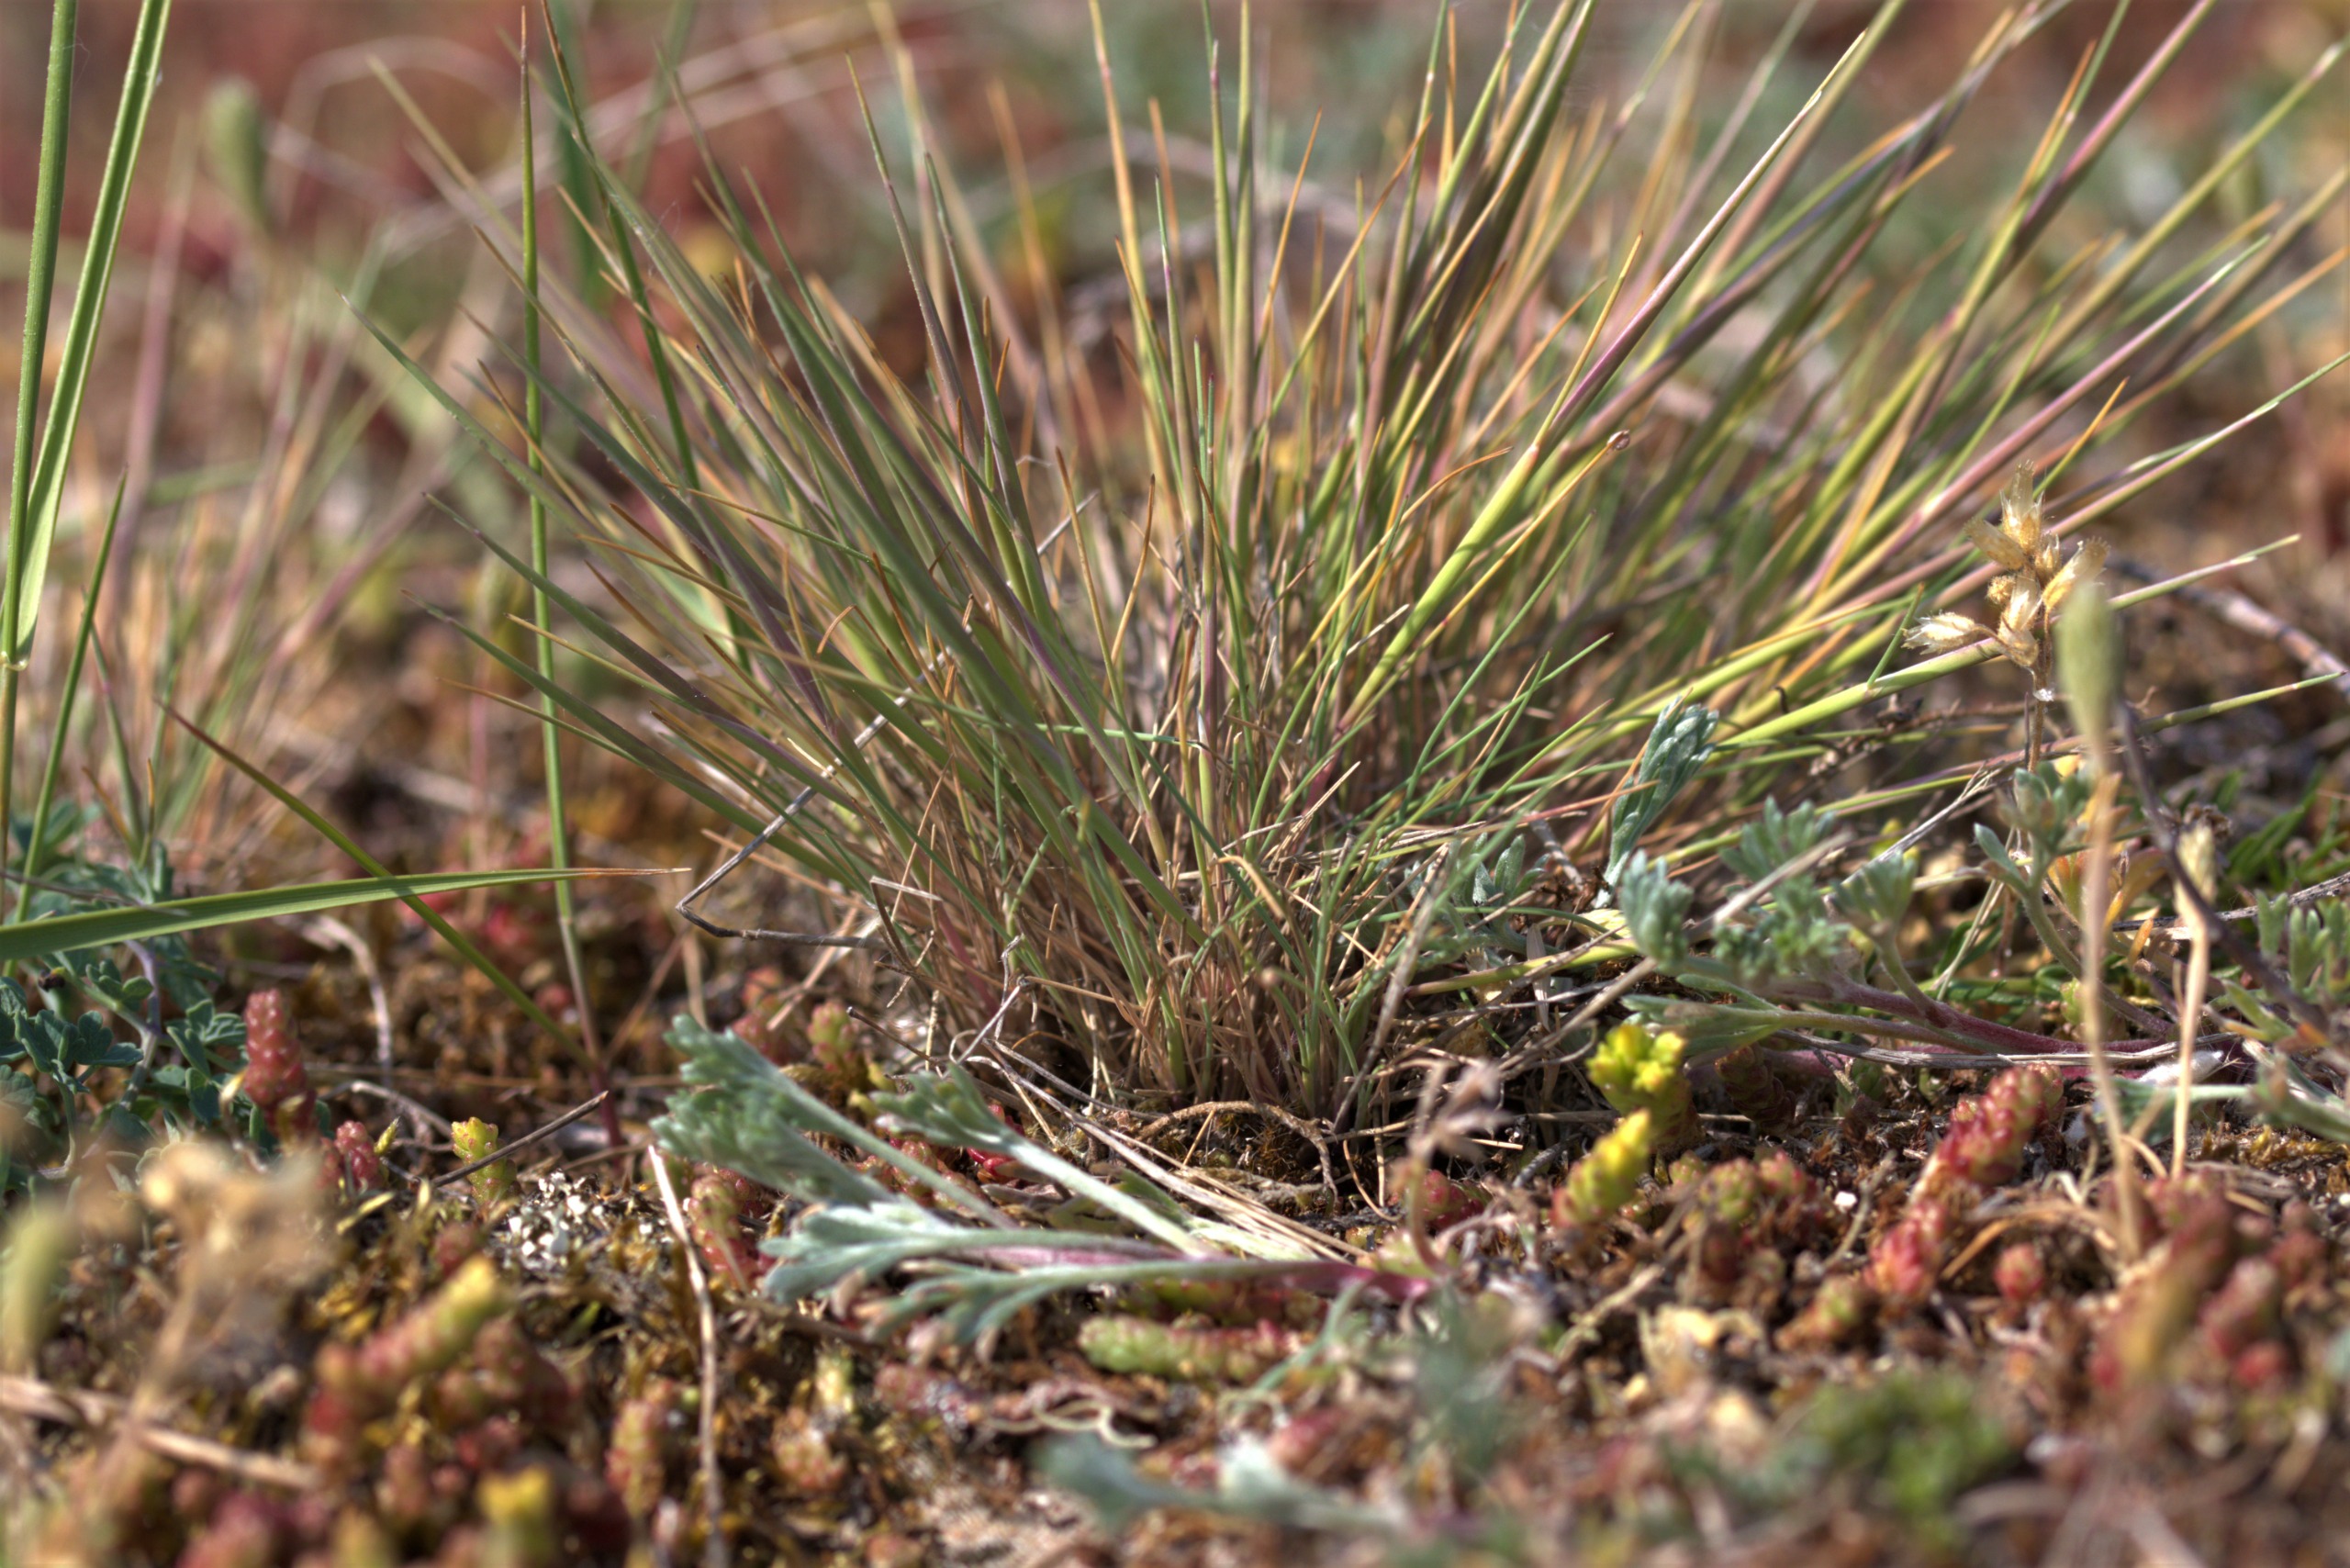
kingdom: Plantae
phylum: Tracheophyta
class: Liliopsida
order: Poales
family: Poaceae
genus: Corynephorus
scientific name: Corynephorus canescens
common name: Sandskæg
